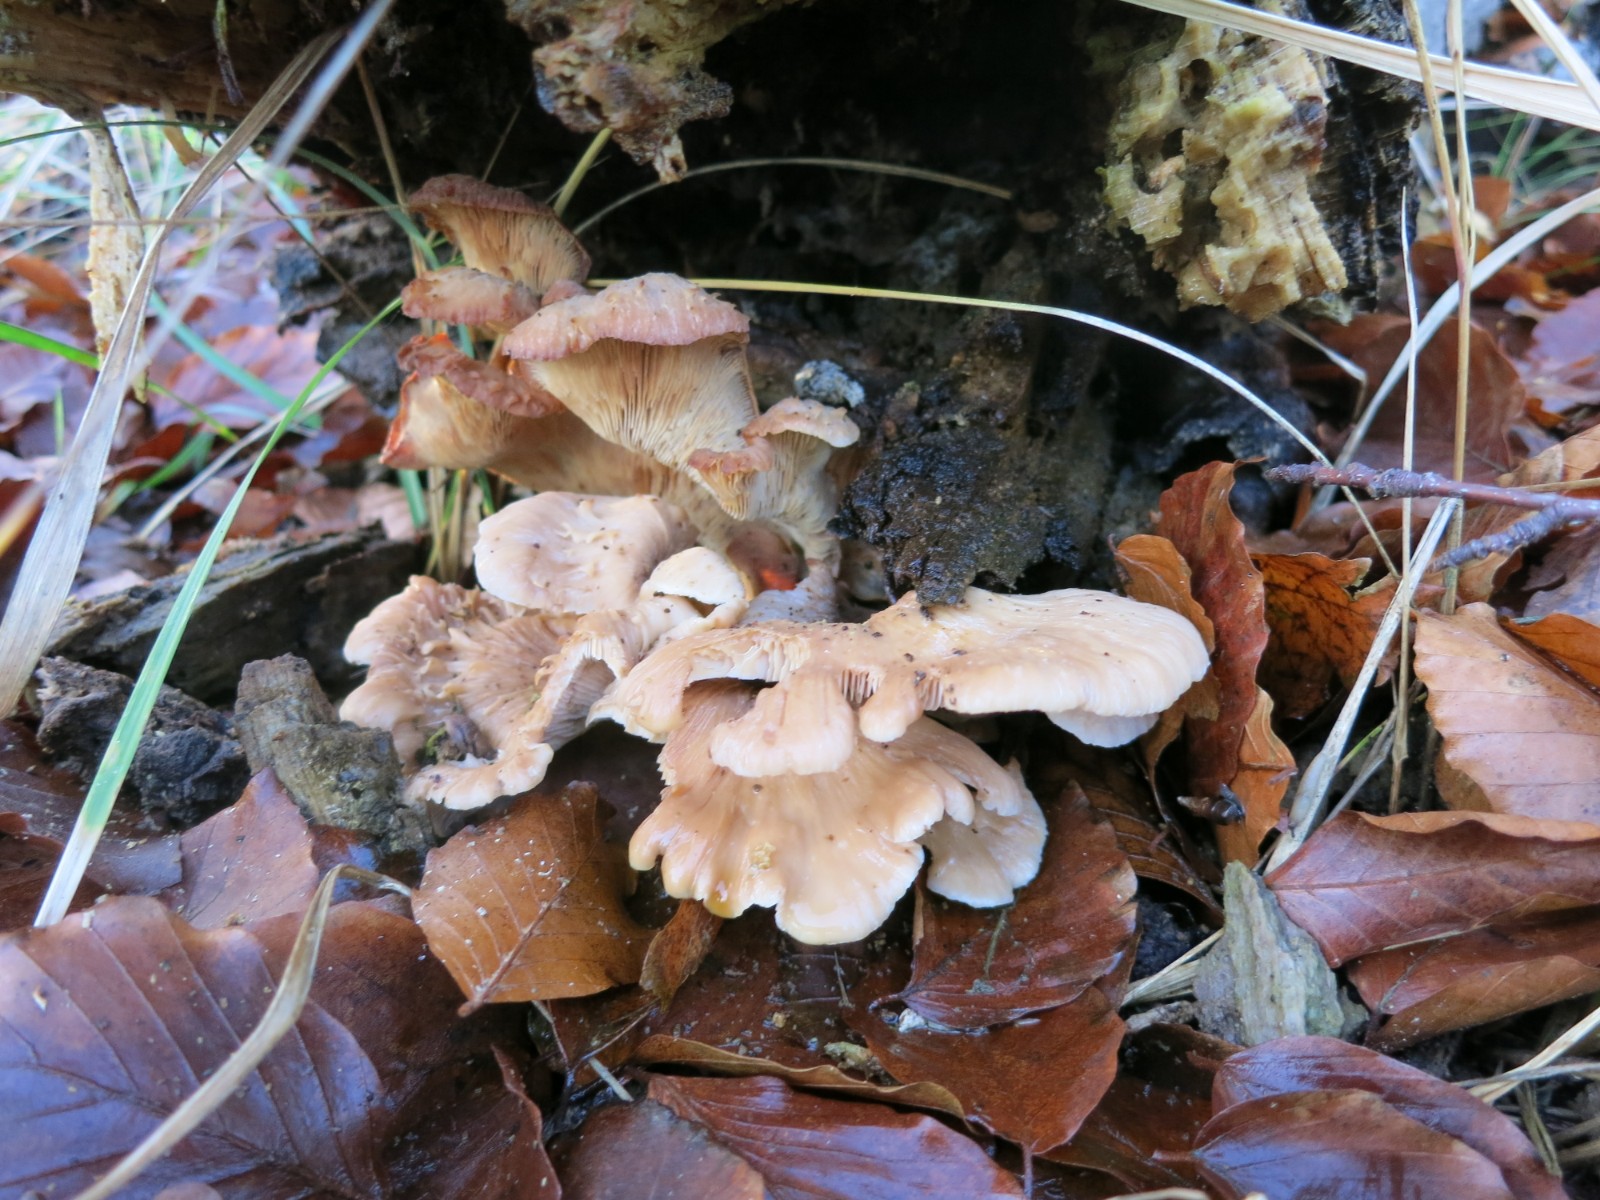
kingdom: Fungi
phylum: Basidiomycota
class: Agaricomycetes
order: Russulales
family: Auriscalpiaceae
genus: Lentinellus
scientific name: Lentinellus ursinus
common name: børstehåret savbladhat
